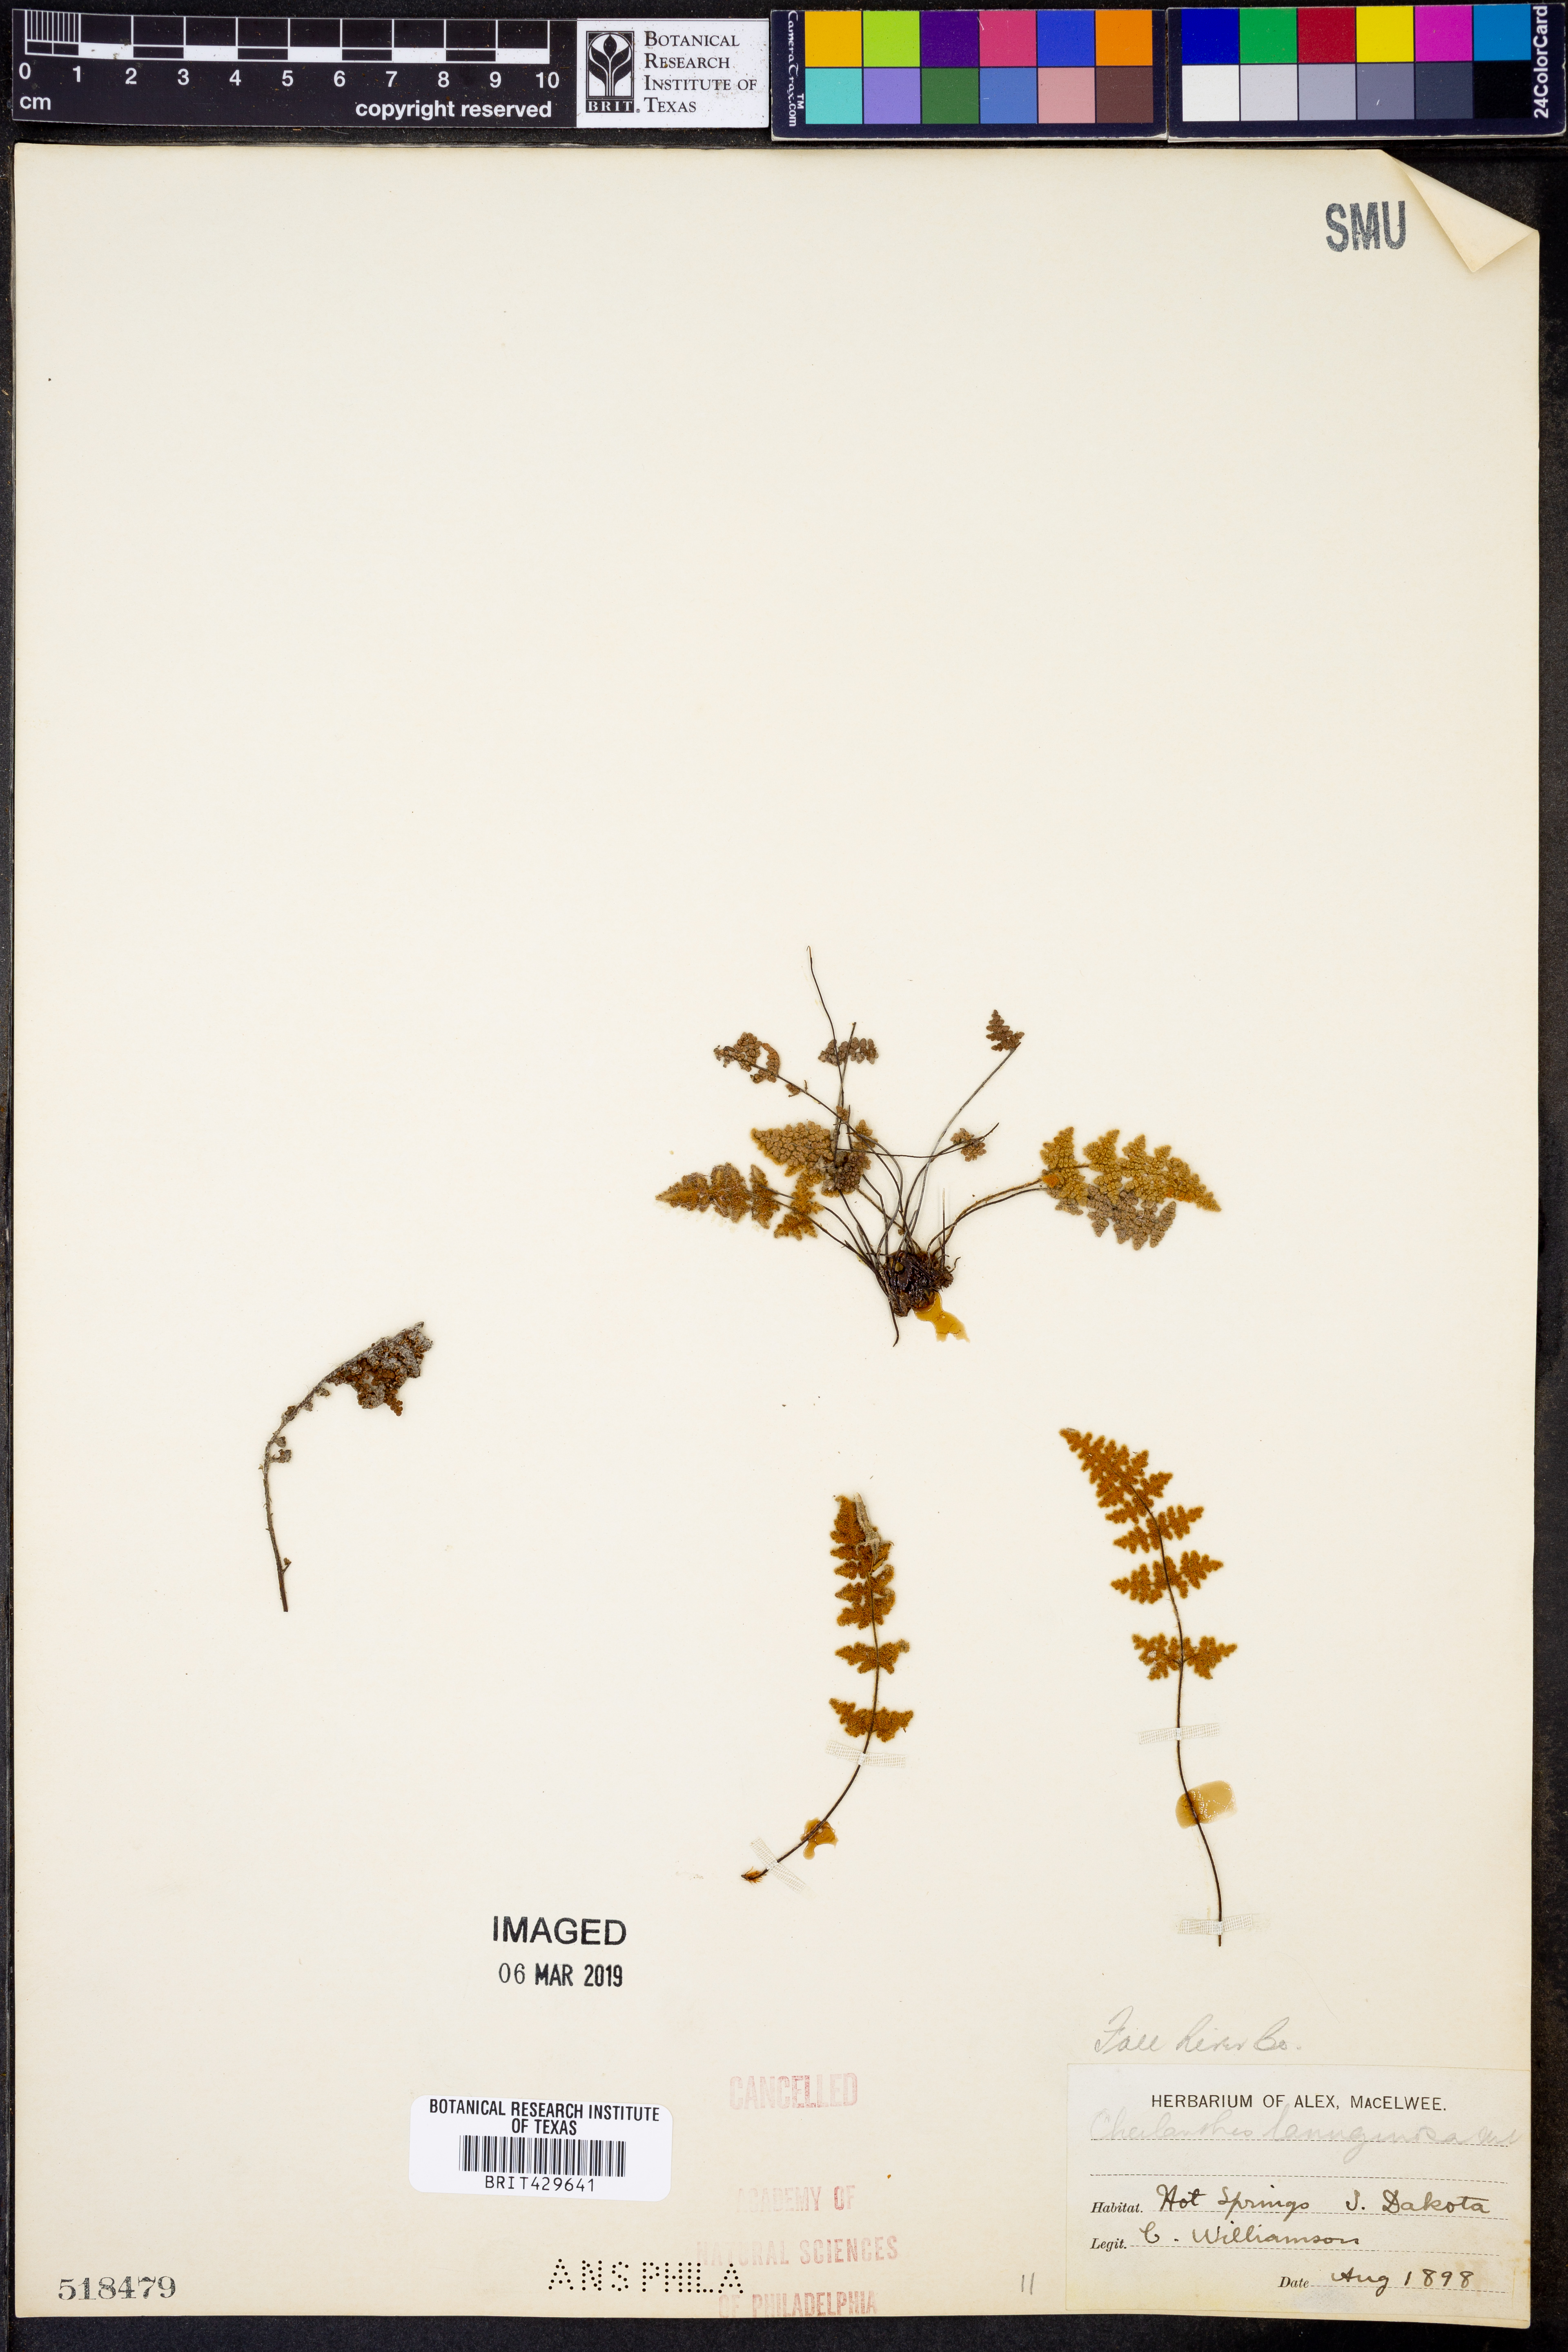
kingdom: Plantae
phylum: Tracheophyta
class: Polypodiopsida
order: Polypodiales
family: Pteridaceae
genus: Cheilanthes
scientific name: Cheilanthes lanuginosa
